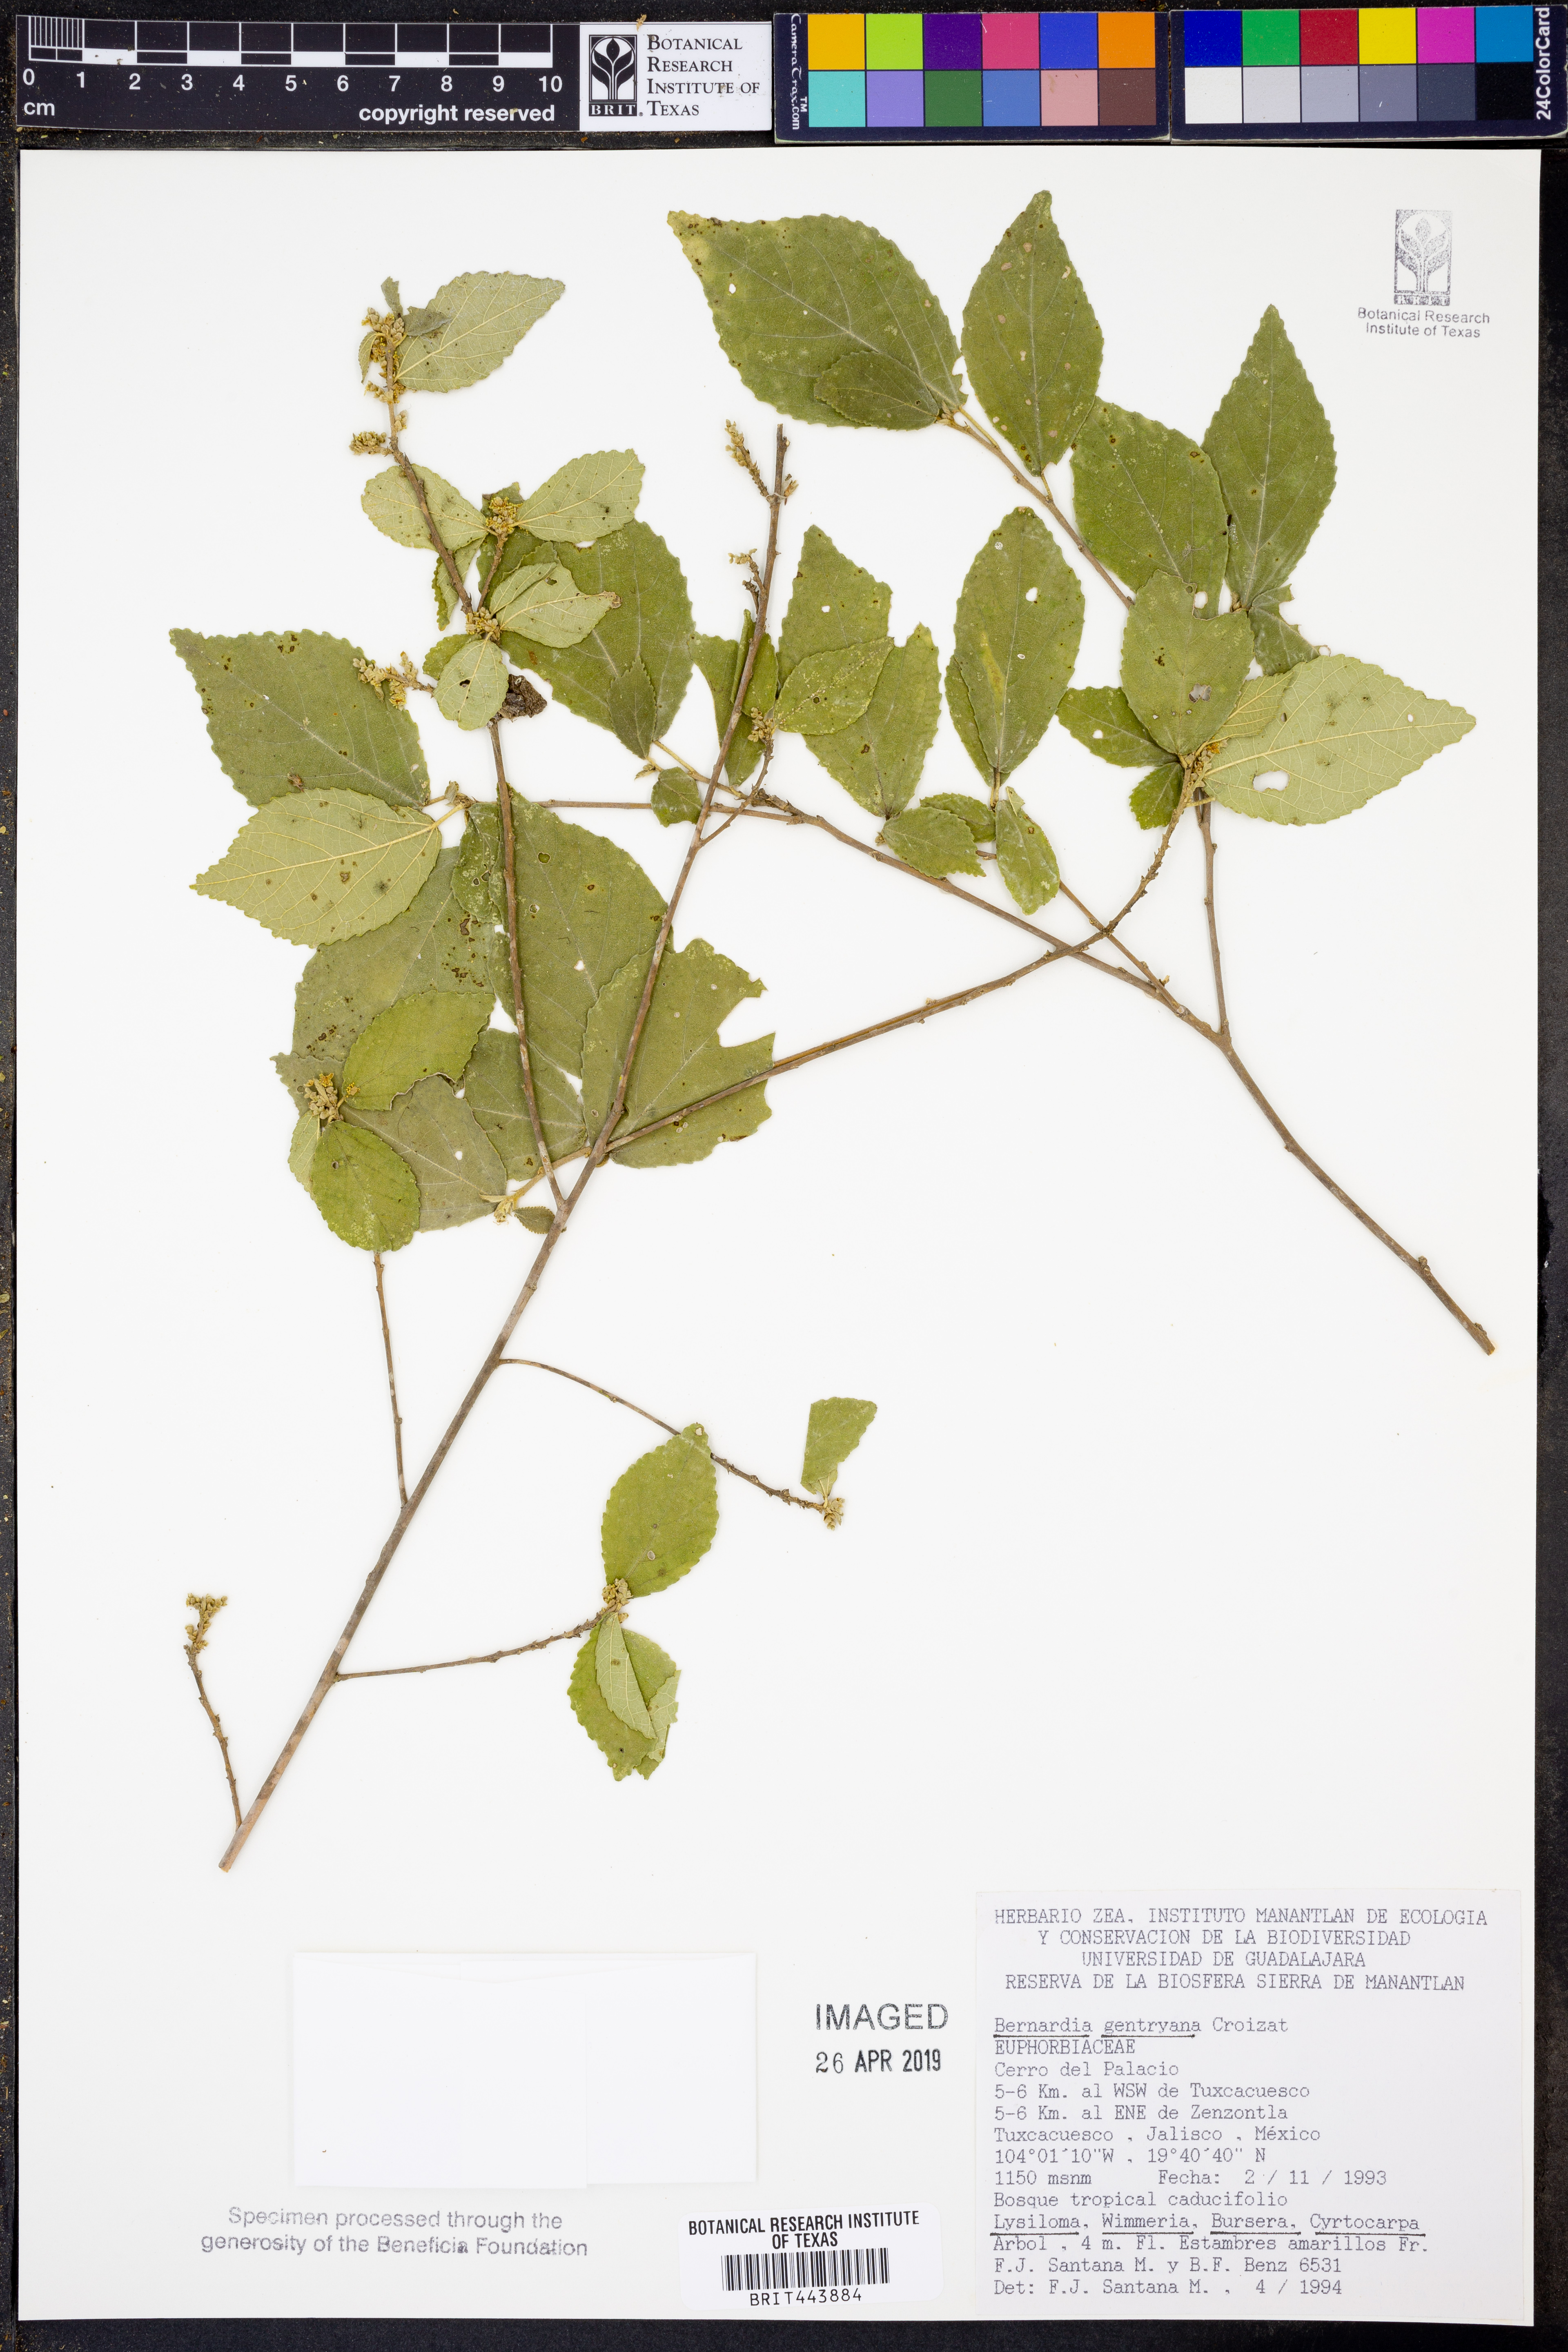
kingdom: Plantae
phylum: Tracheophyta
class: Magnoliopsida
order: Malpighiales
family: Euphorbiaceae
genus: Bernardia
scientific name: Bernardia gentryana
